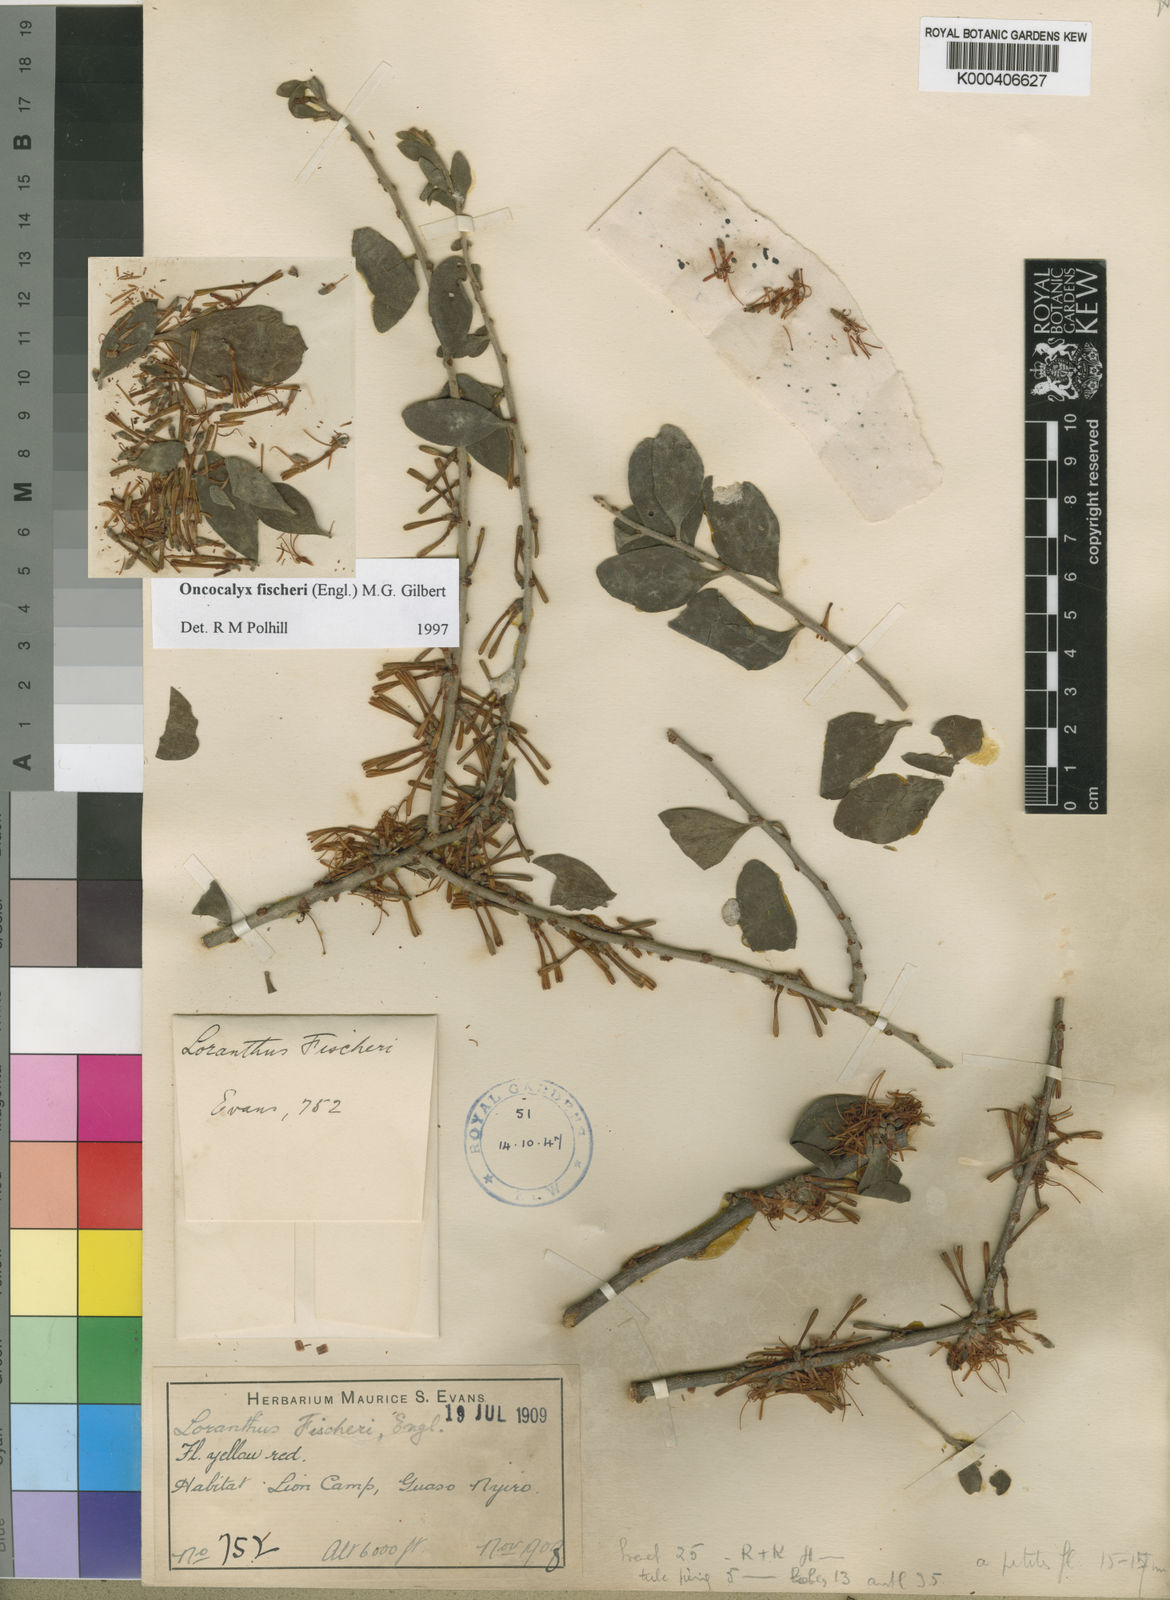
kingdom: Plantae
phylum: Tracheophyta
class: Magnoliopsida
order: Santalales
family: Loranthaceae
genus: Oncocalyx
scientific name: Oncocalyx fischeri
